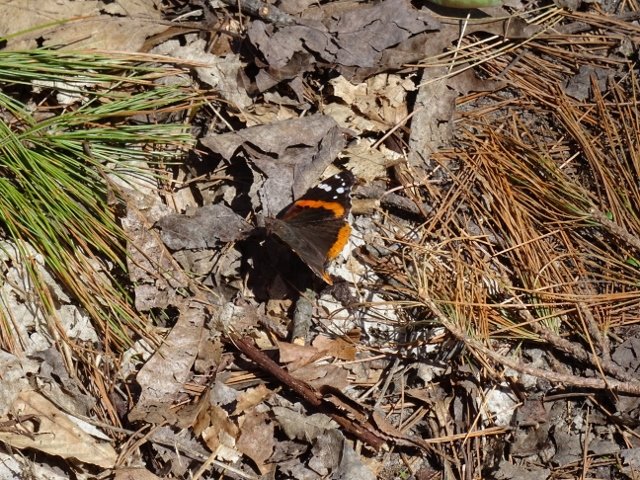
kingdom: Animalia
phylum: Arthropoda
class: Insecta
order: Lepidoptera
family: Nymphalidae
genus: Vanessa
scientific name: Vanessa atalanta
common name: Red Admiral
